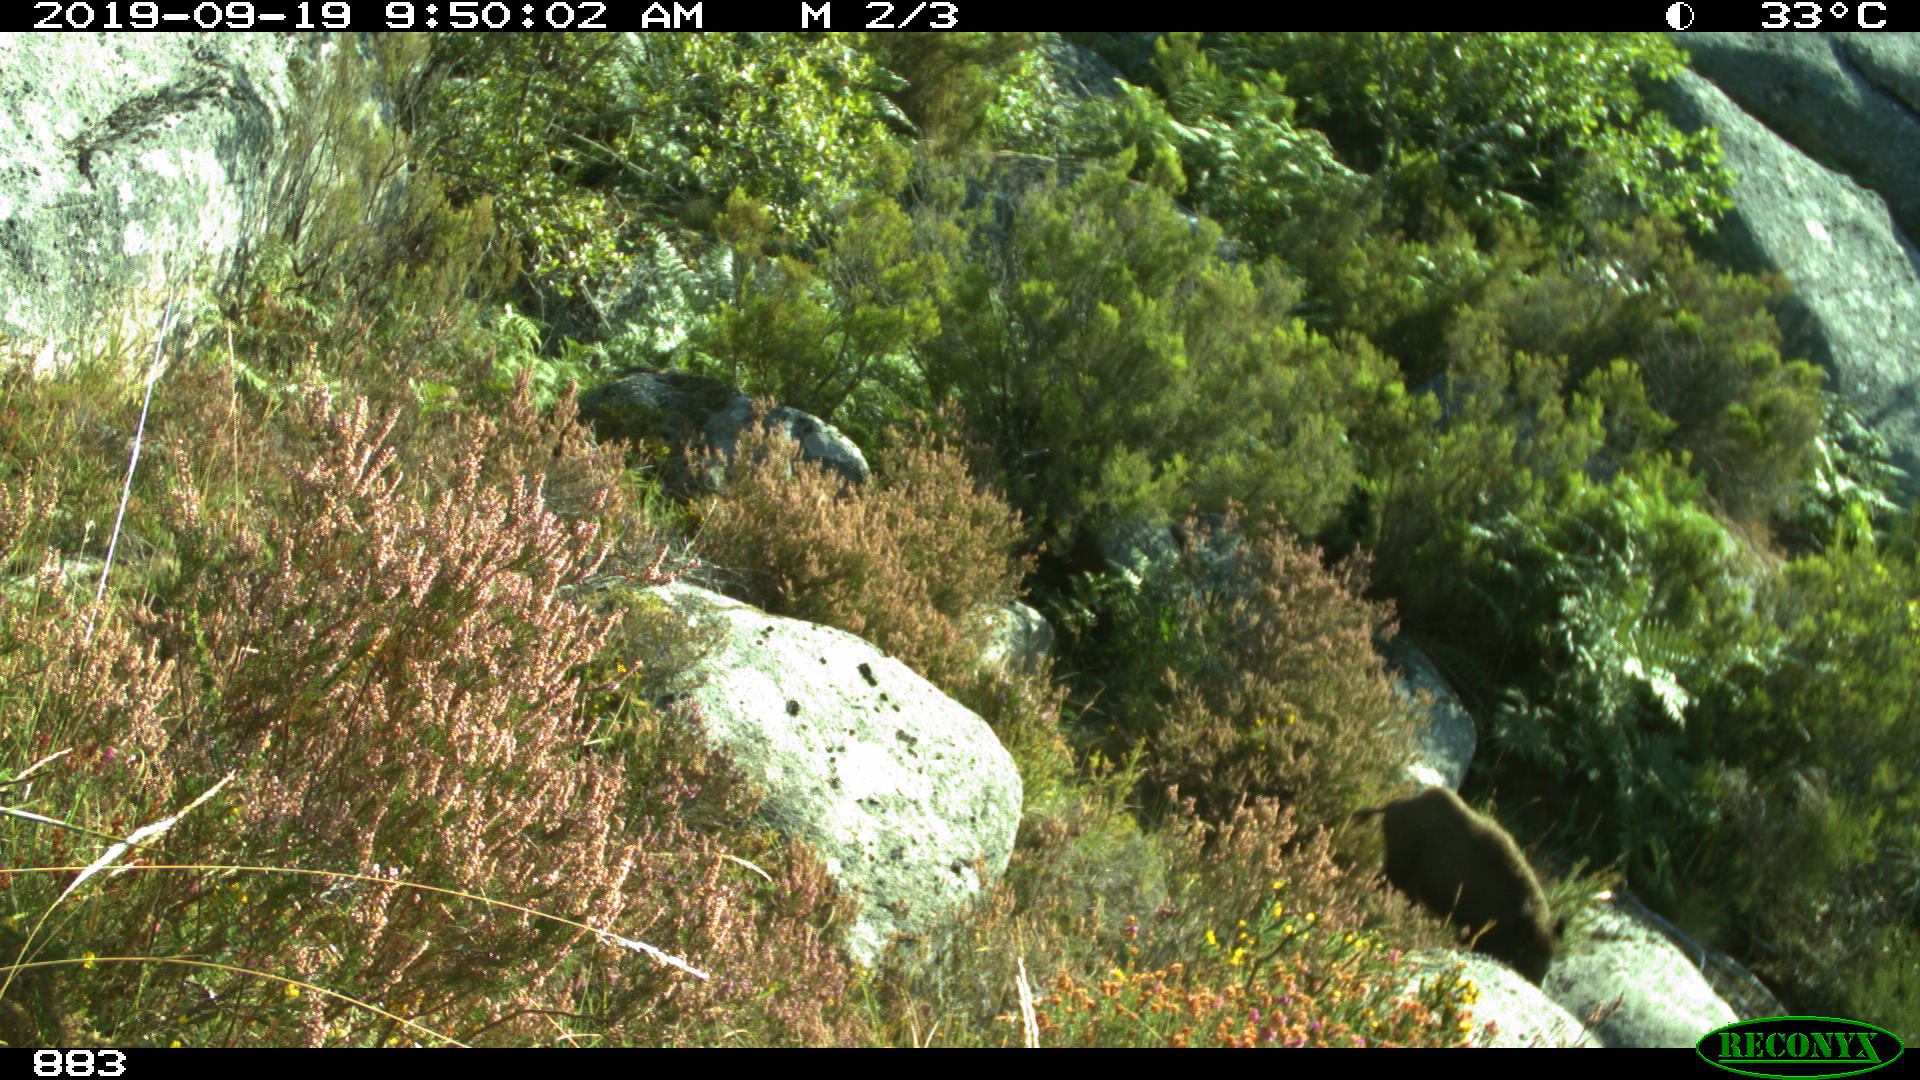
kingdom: Animalia
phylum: Chordata
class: Mammalia
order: Artiodactyla
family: Suidae
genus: Sus
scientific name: Sus scrofa
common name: Wild boar
